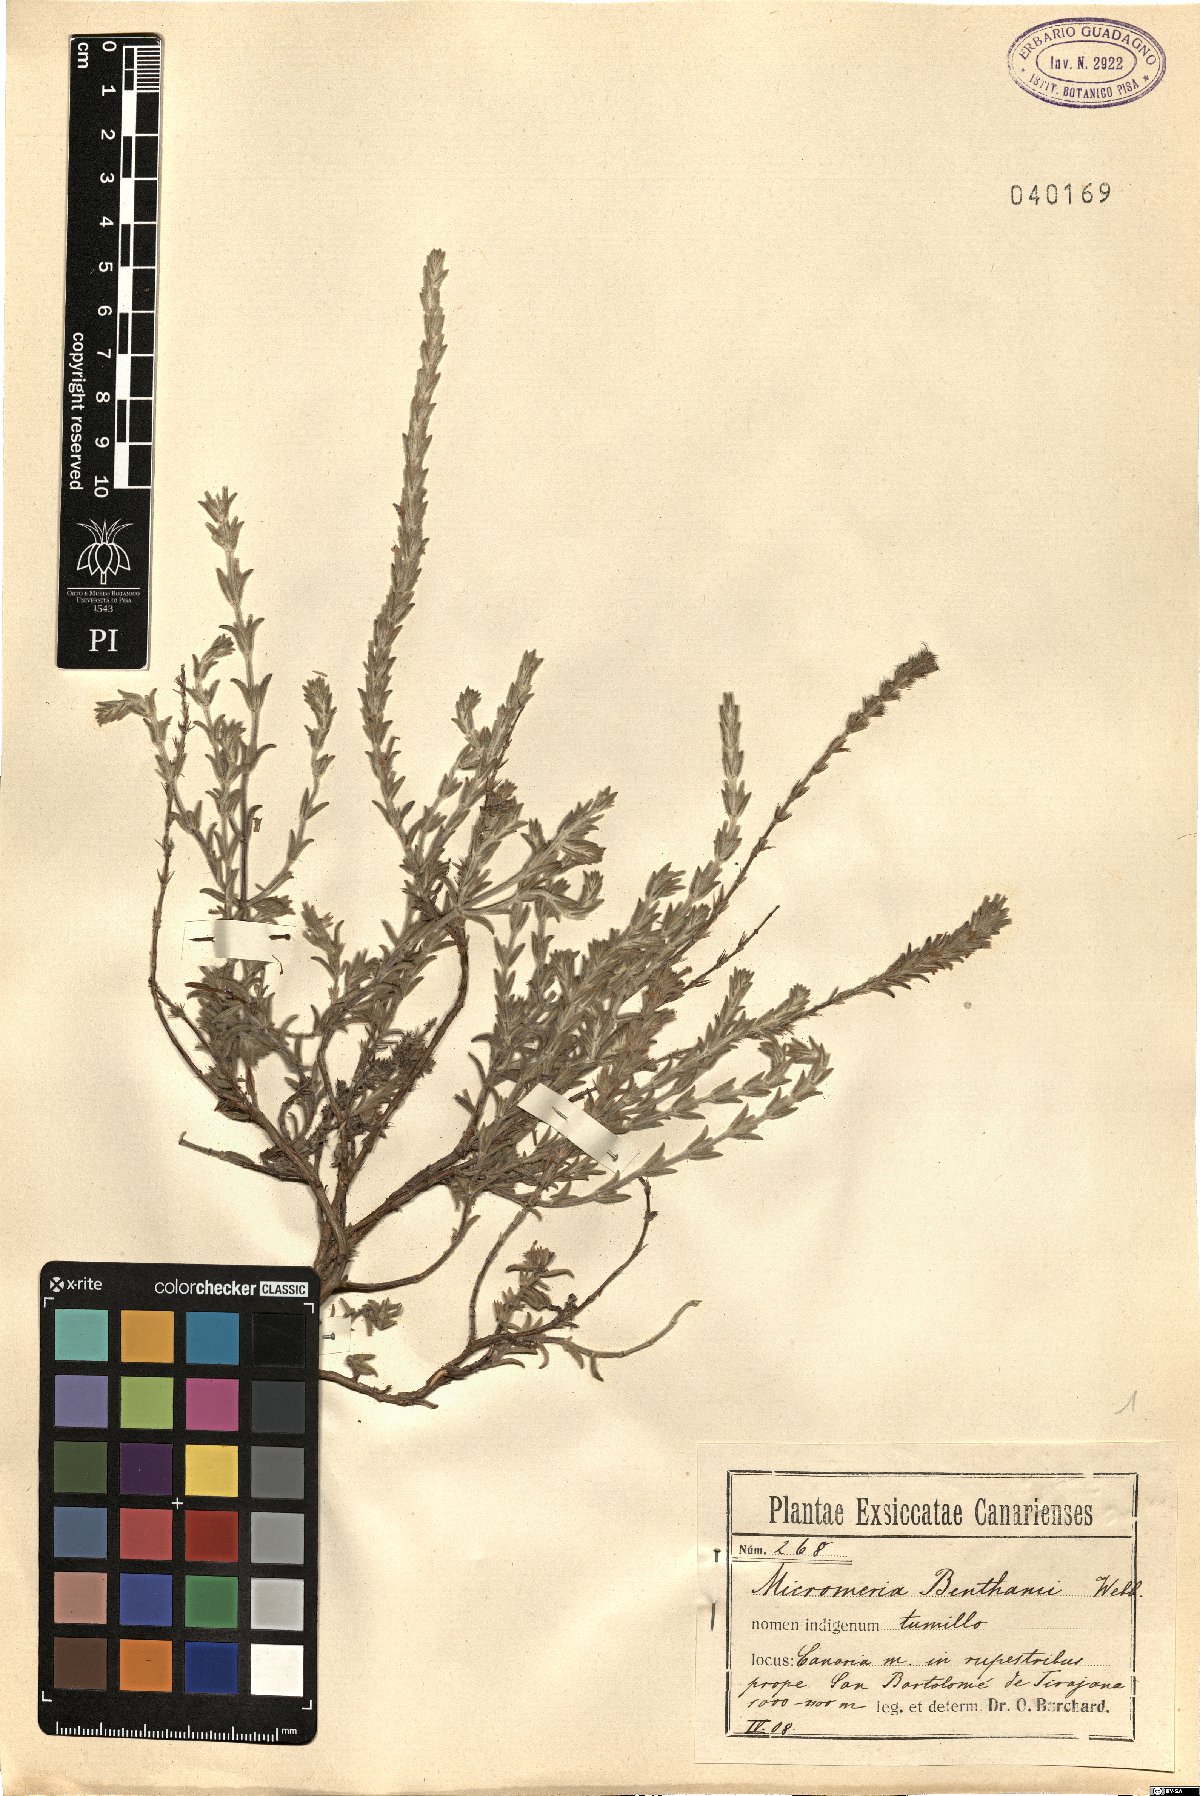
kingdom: Plantae
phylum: Tracheophyta
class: Magnoliopsida
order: Lamiales
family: Lamiaceae
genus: Micromeria
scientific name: Micromeria benthamii
